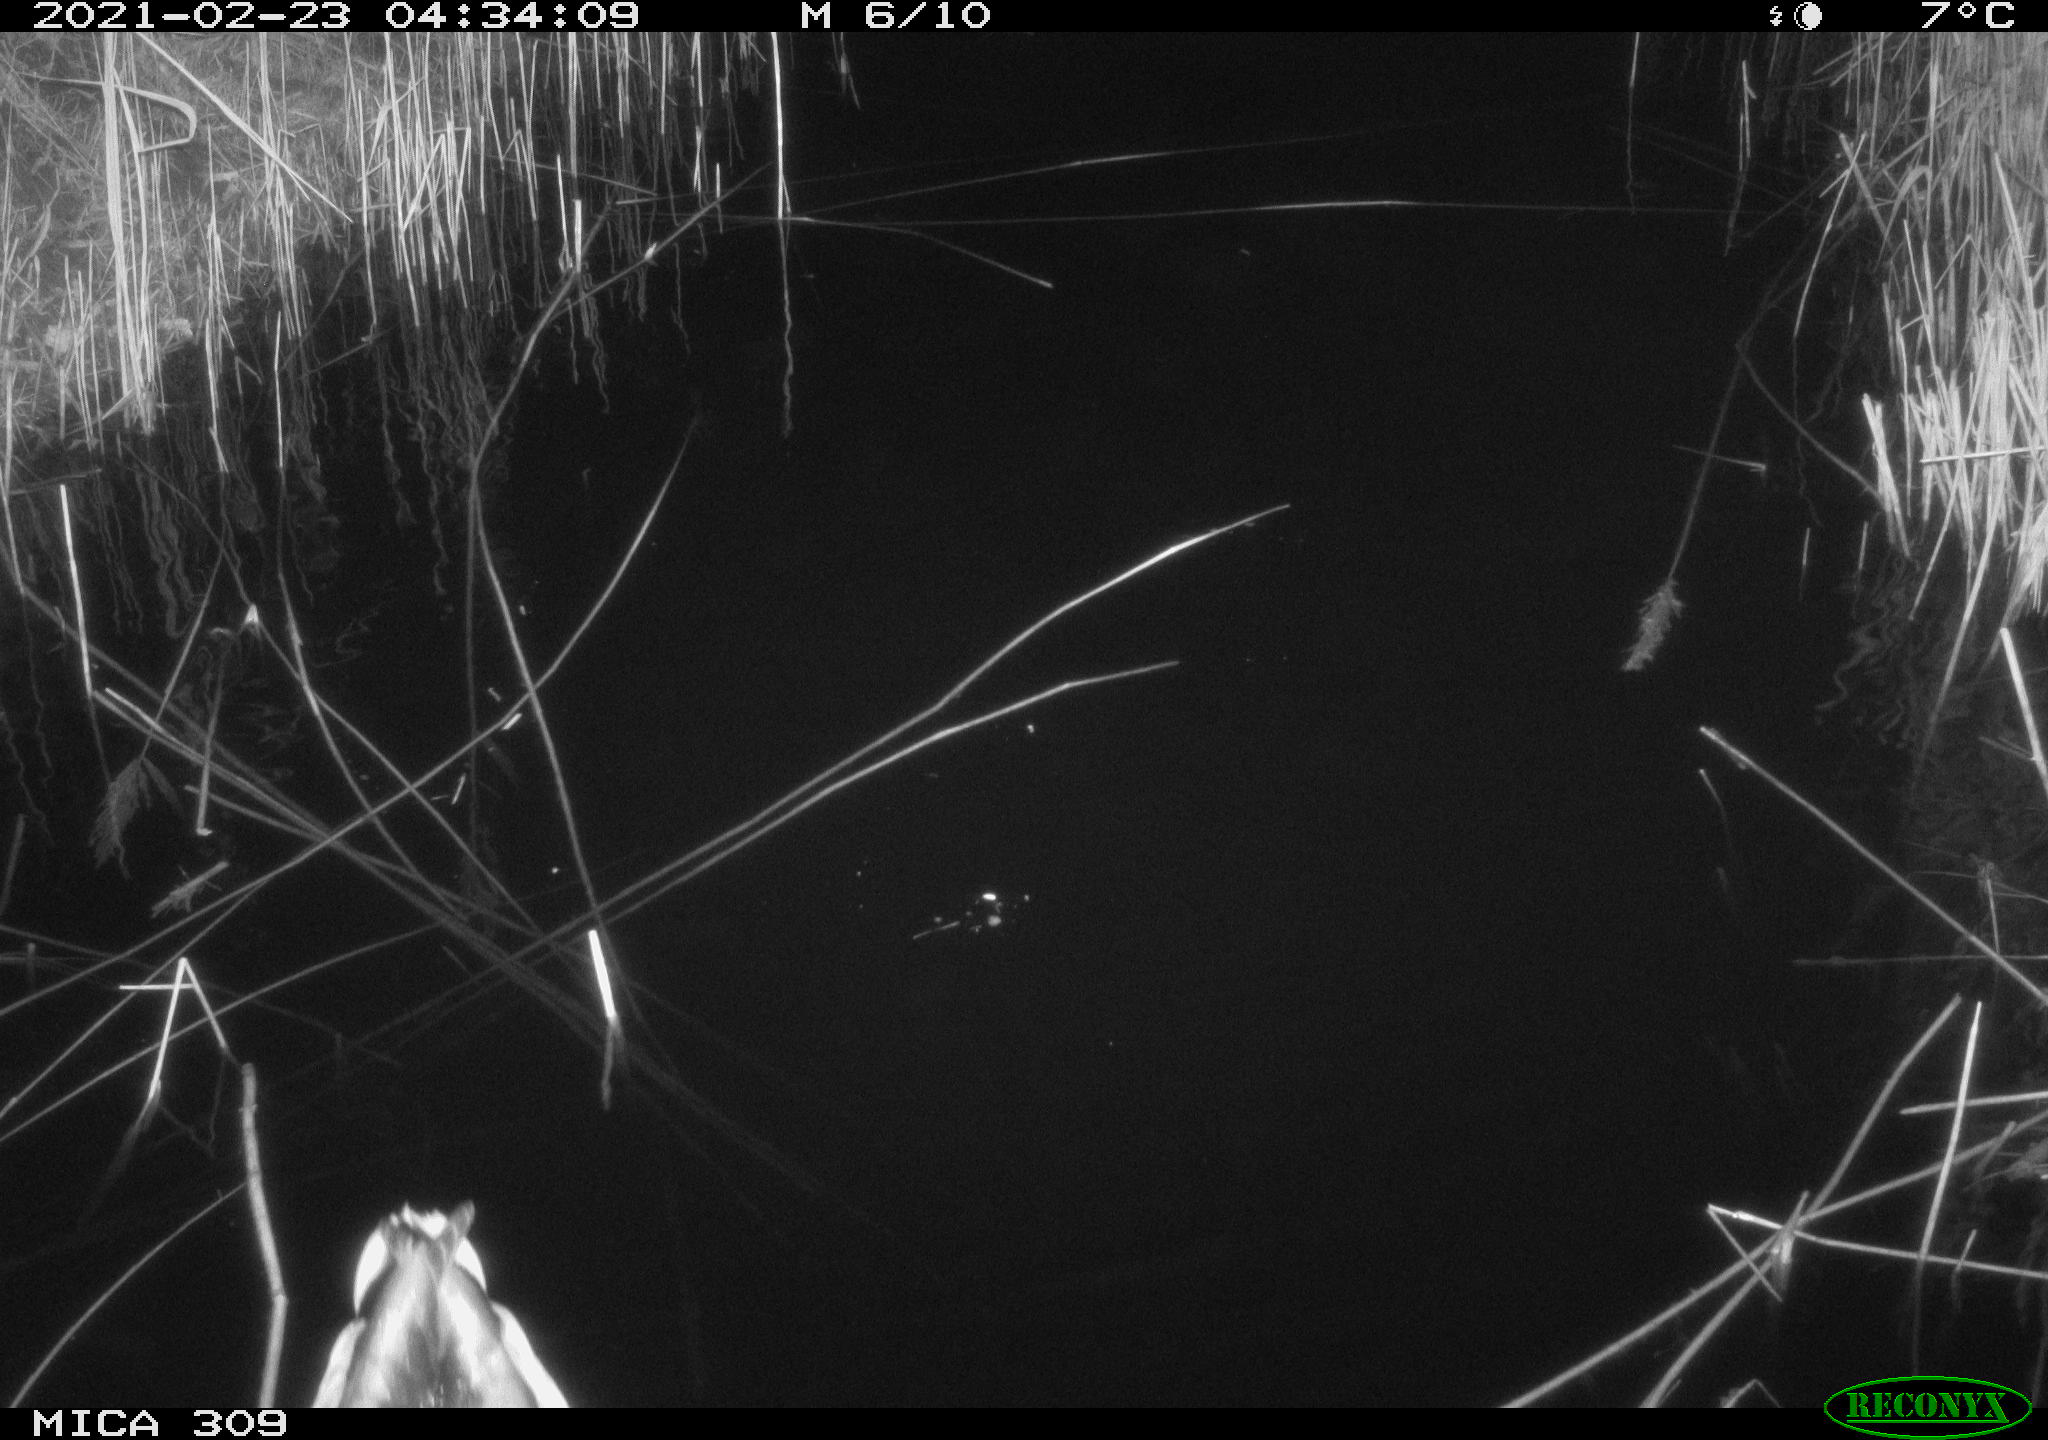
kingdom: Animalia
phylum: Chordata
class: Aves
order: Anseriformes
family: Anatidae
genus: Anas
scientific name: Anas platyrhynchos
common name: Mallard
